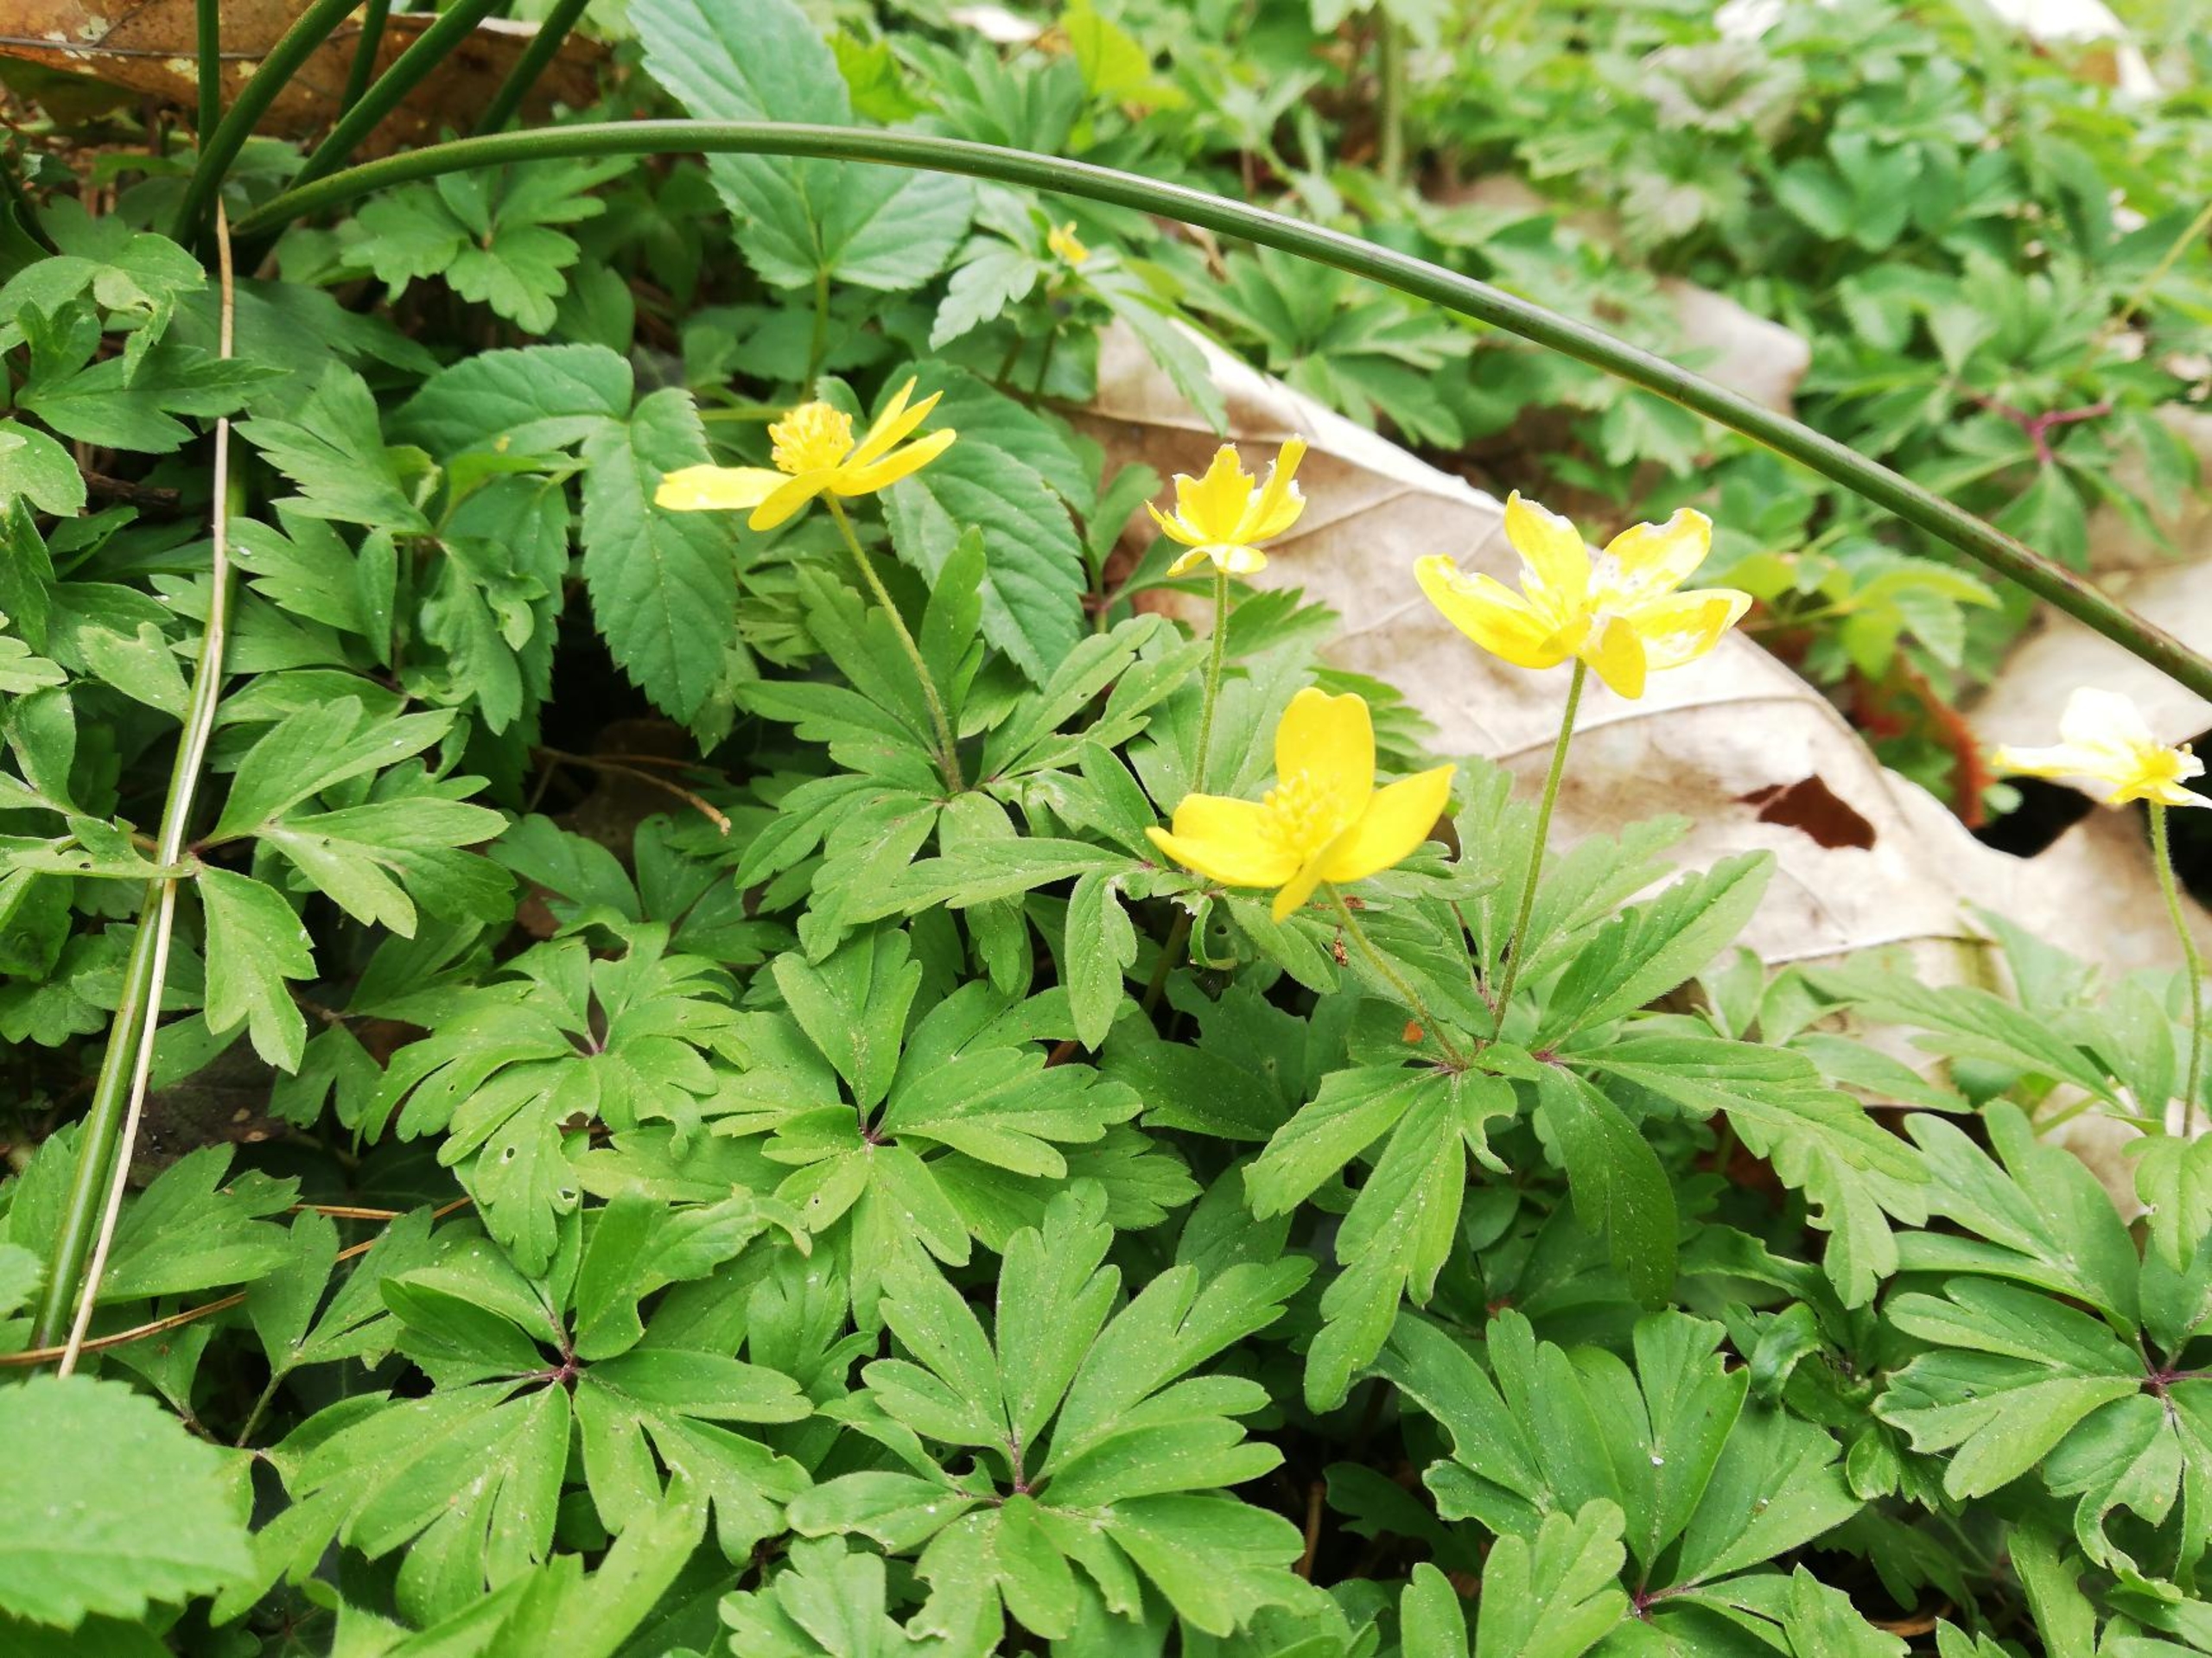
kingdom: Plantae
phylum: Tracheophyta
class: Magnoliopsida
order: Ranunculales
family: Ranunculaceae
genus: Anemone
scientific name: Anemone ranunculoides
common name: Gul anemone
